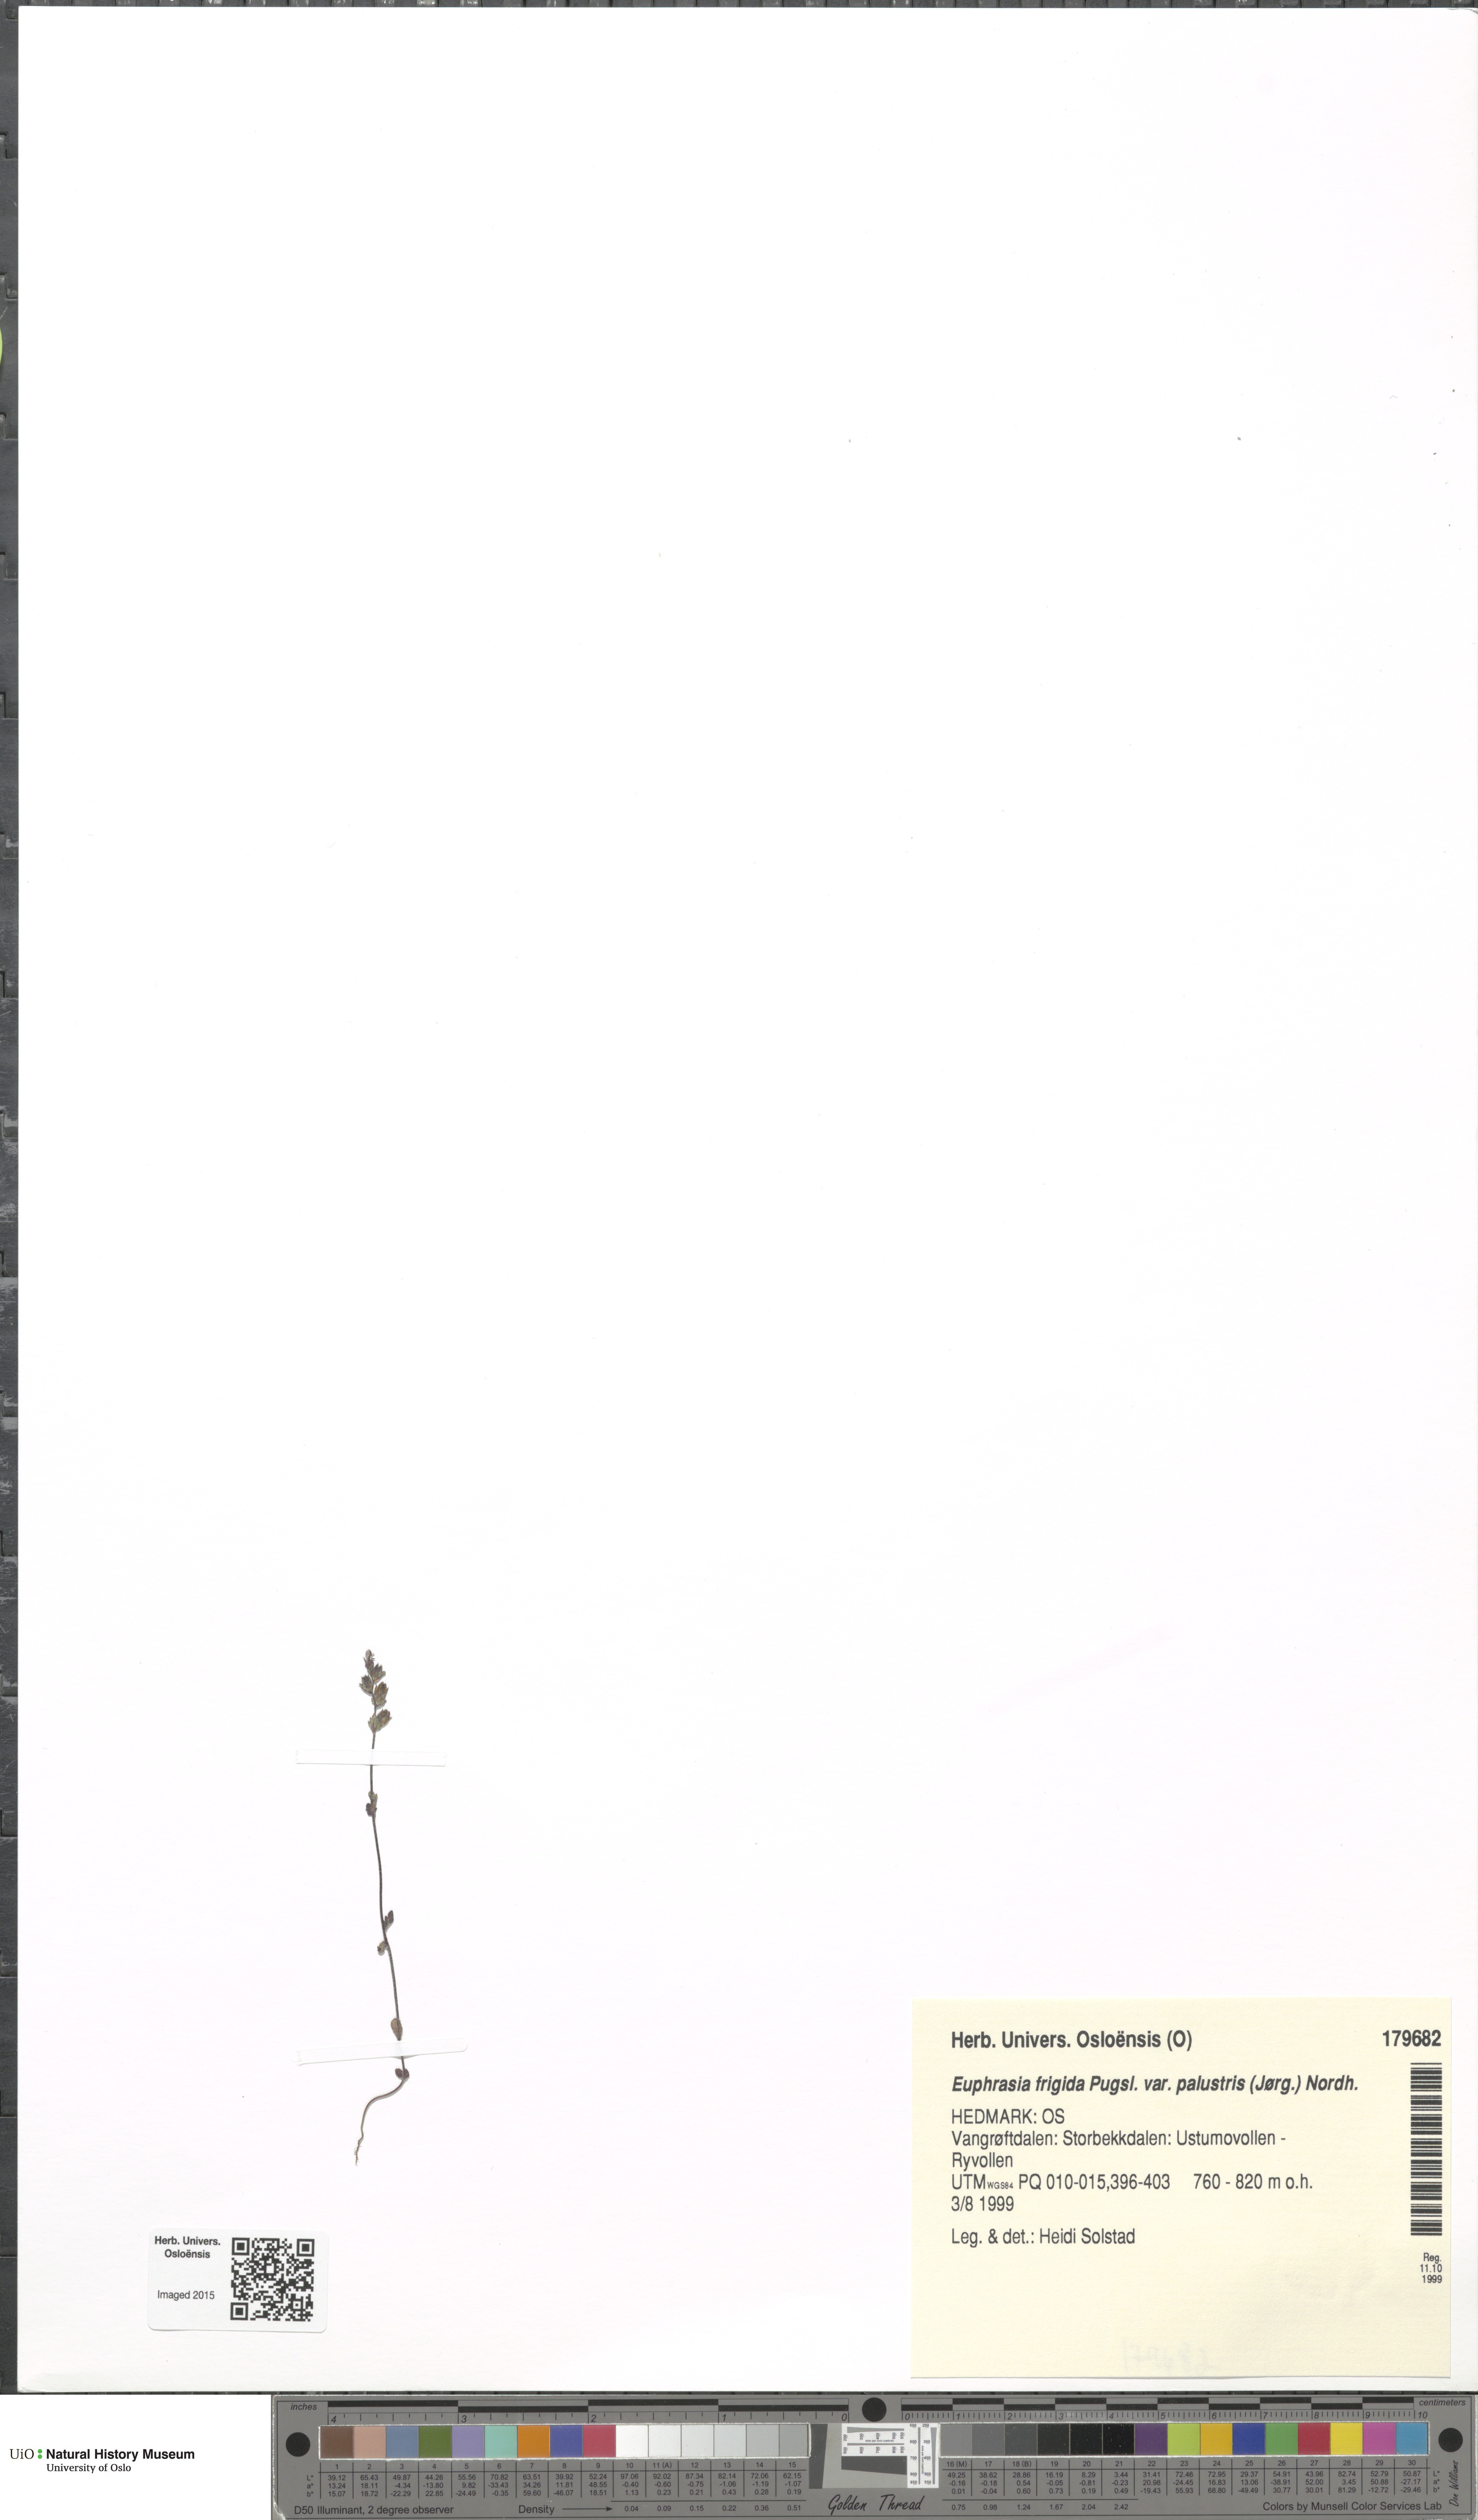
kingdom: Plantae
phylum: Tracheophyta
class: Magnoliopsida
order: Lamiales
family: Orobanchaceae
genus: Euphrasia
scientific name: Euphrasia wettsteinii
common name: Wettstein's eyebright
